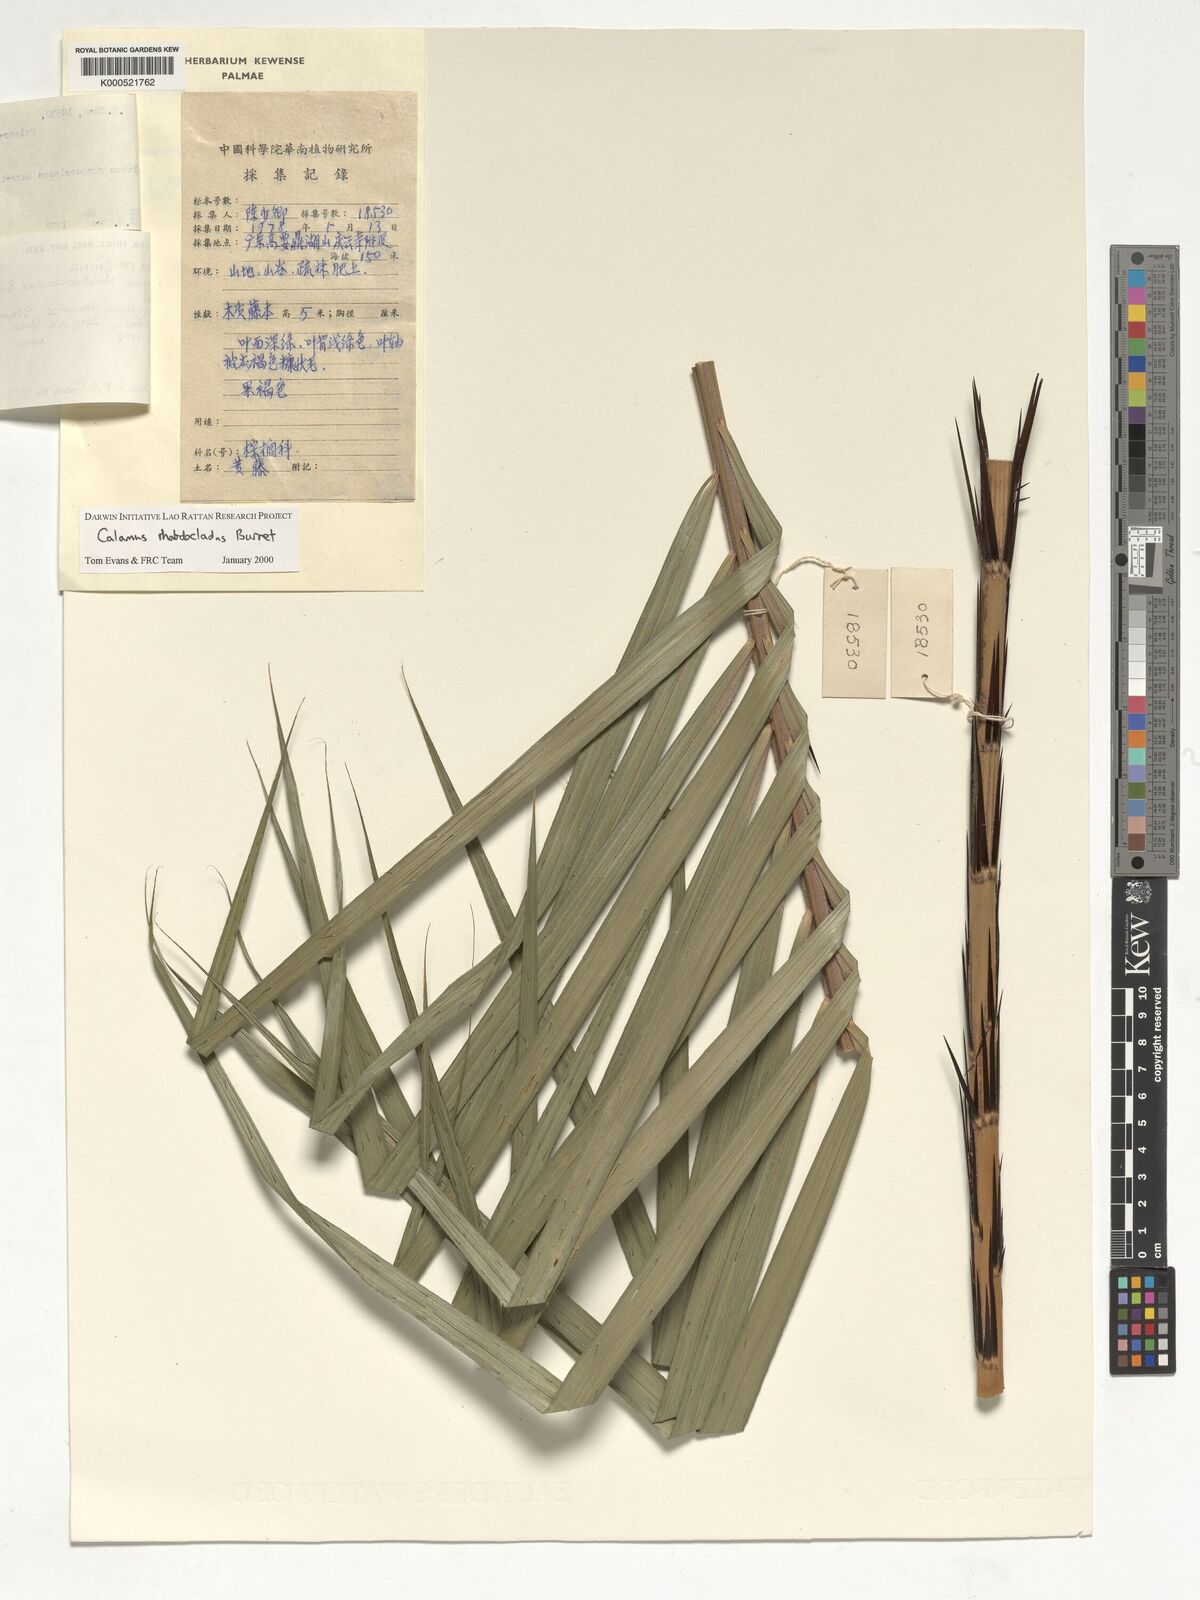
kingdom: Plantae
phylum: Tracheophyta
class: Liliopsida
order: Arecales
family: Arecaceae
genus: Calamus
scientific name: Calamus rhabdocladus
